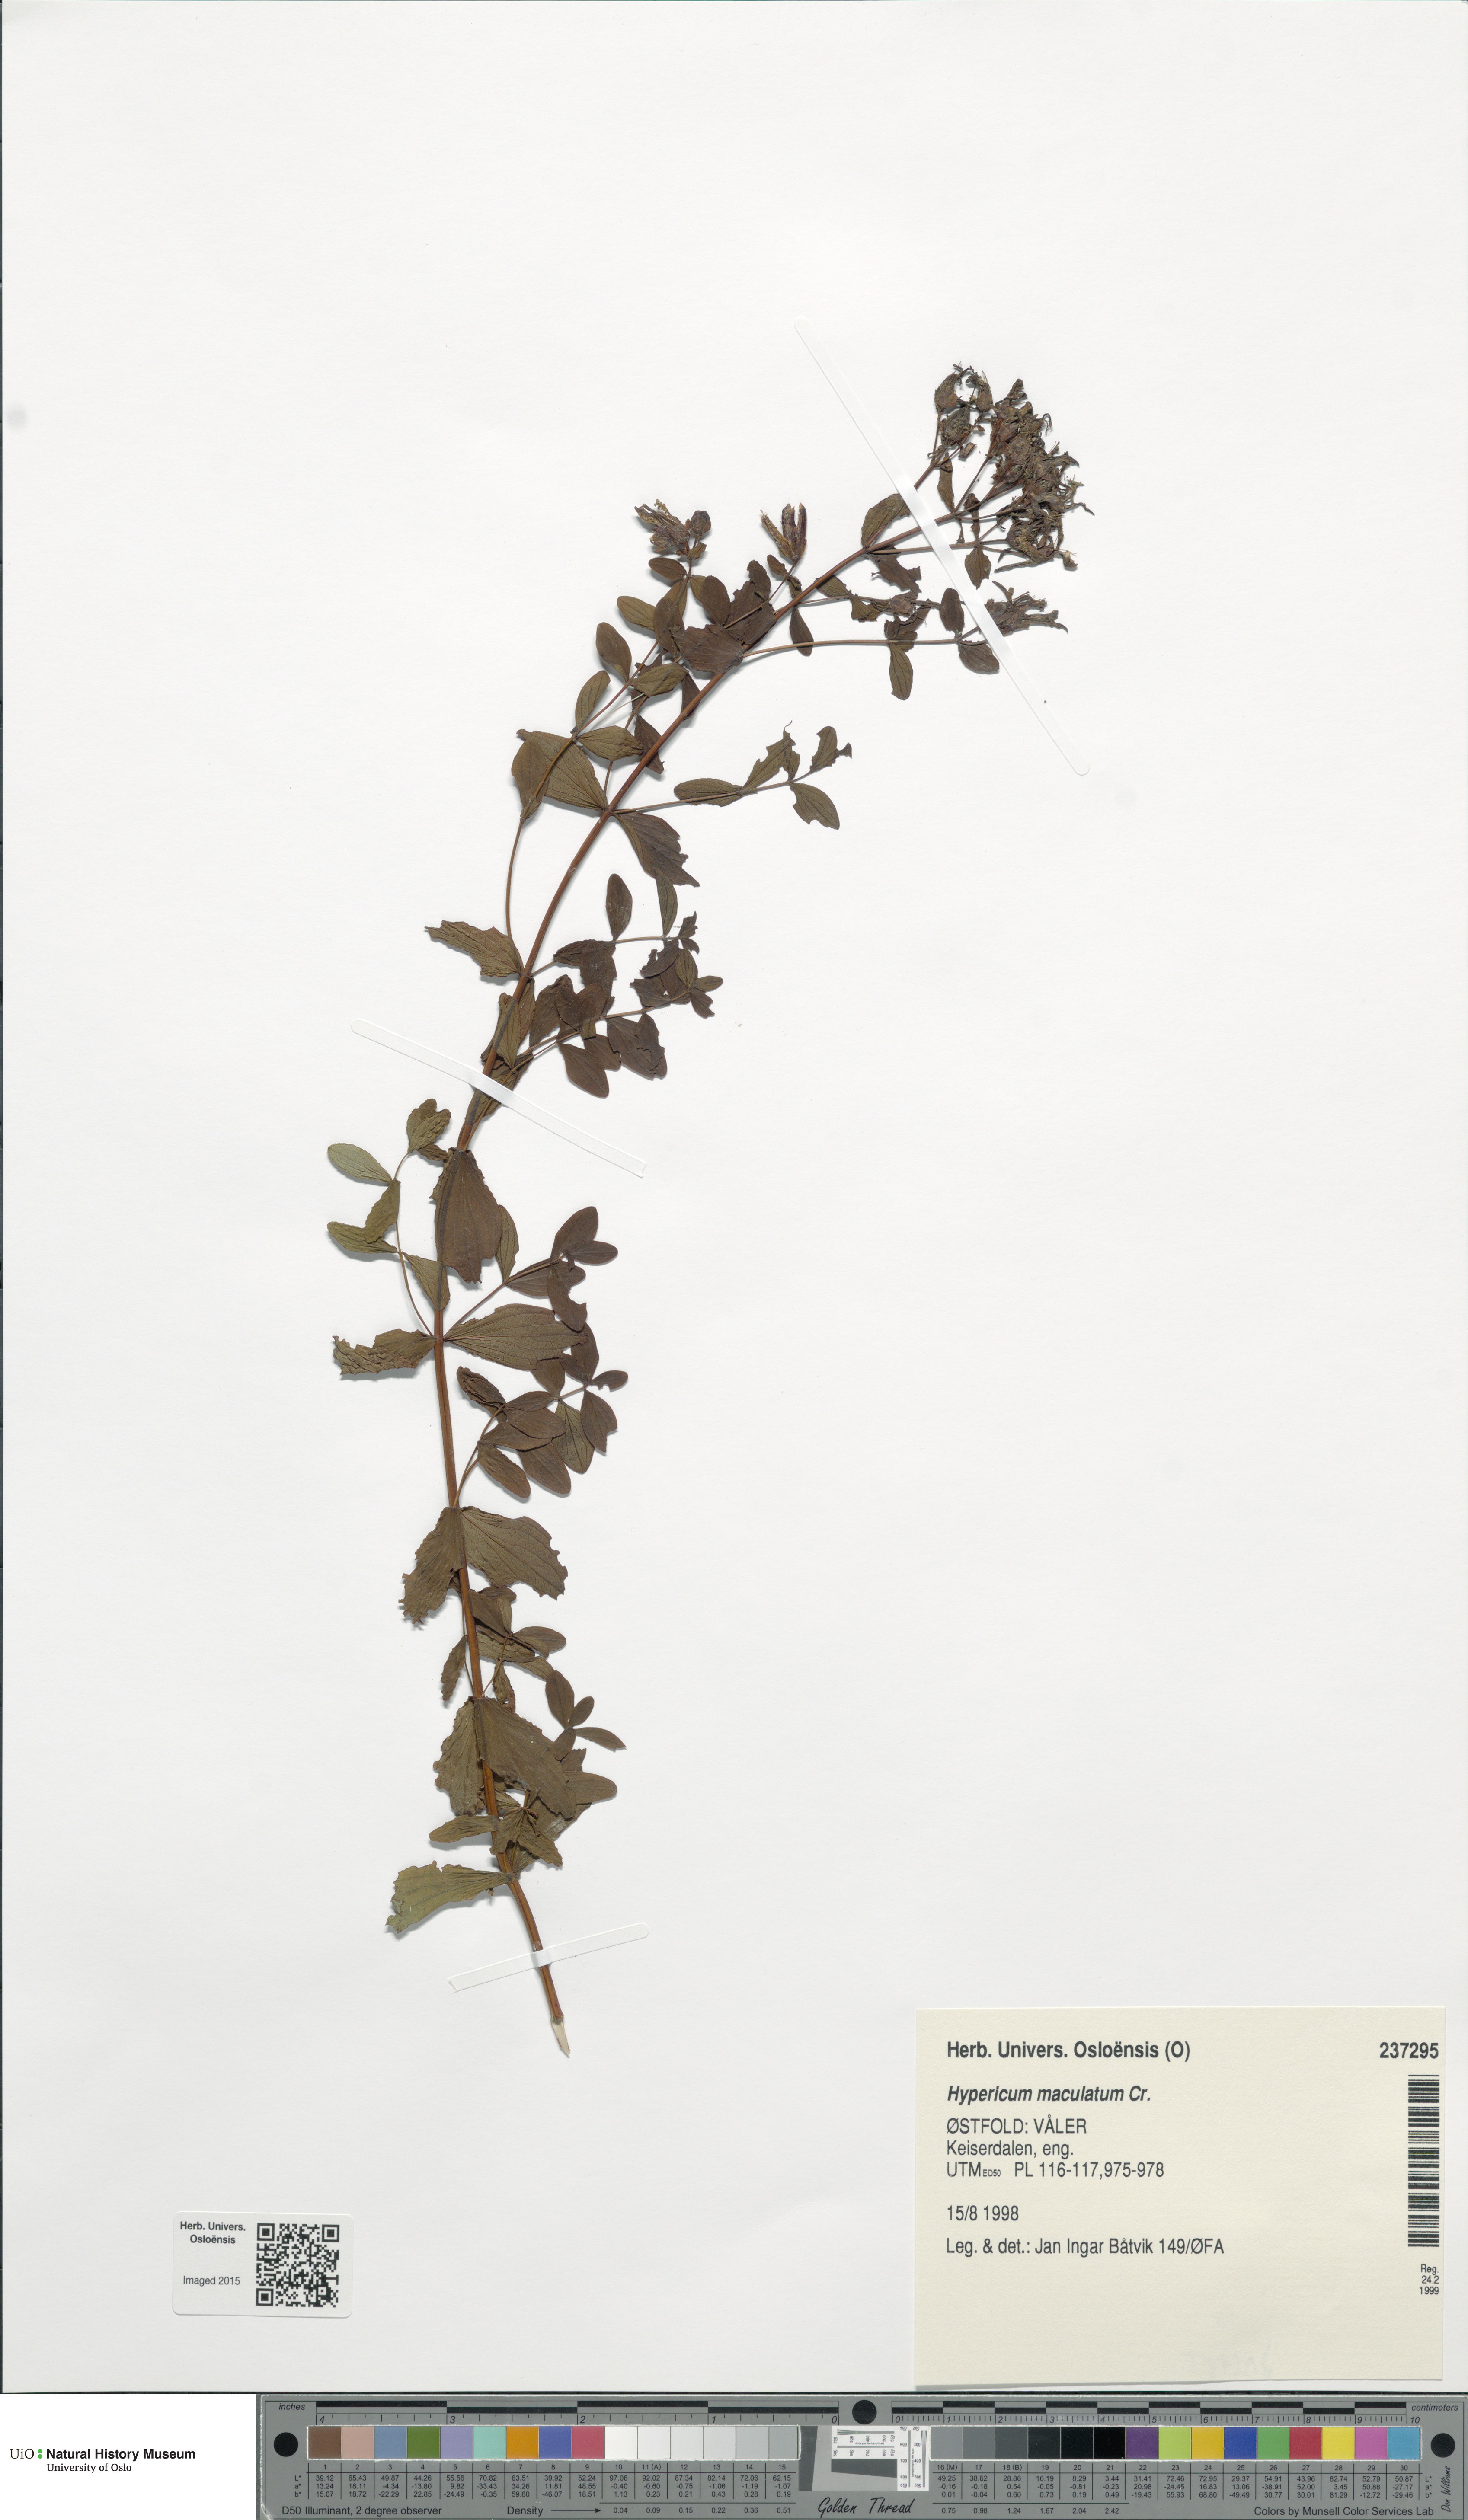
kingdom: Plantae
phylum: Tracheophyta
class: Magnoliopsida
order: Malpighiales
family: Hypericaceae
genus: Hypericum
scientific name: Hypericum maculatum
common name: Imperforate st. john's-wort
